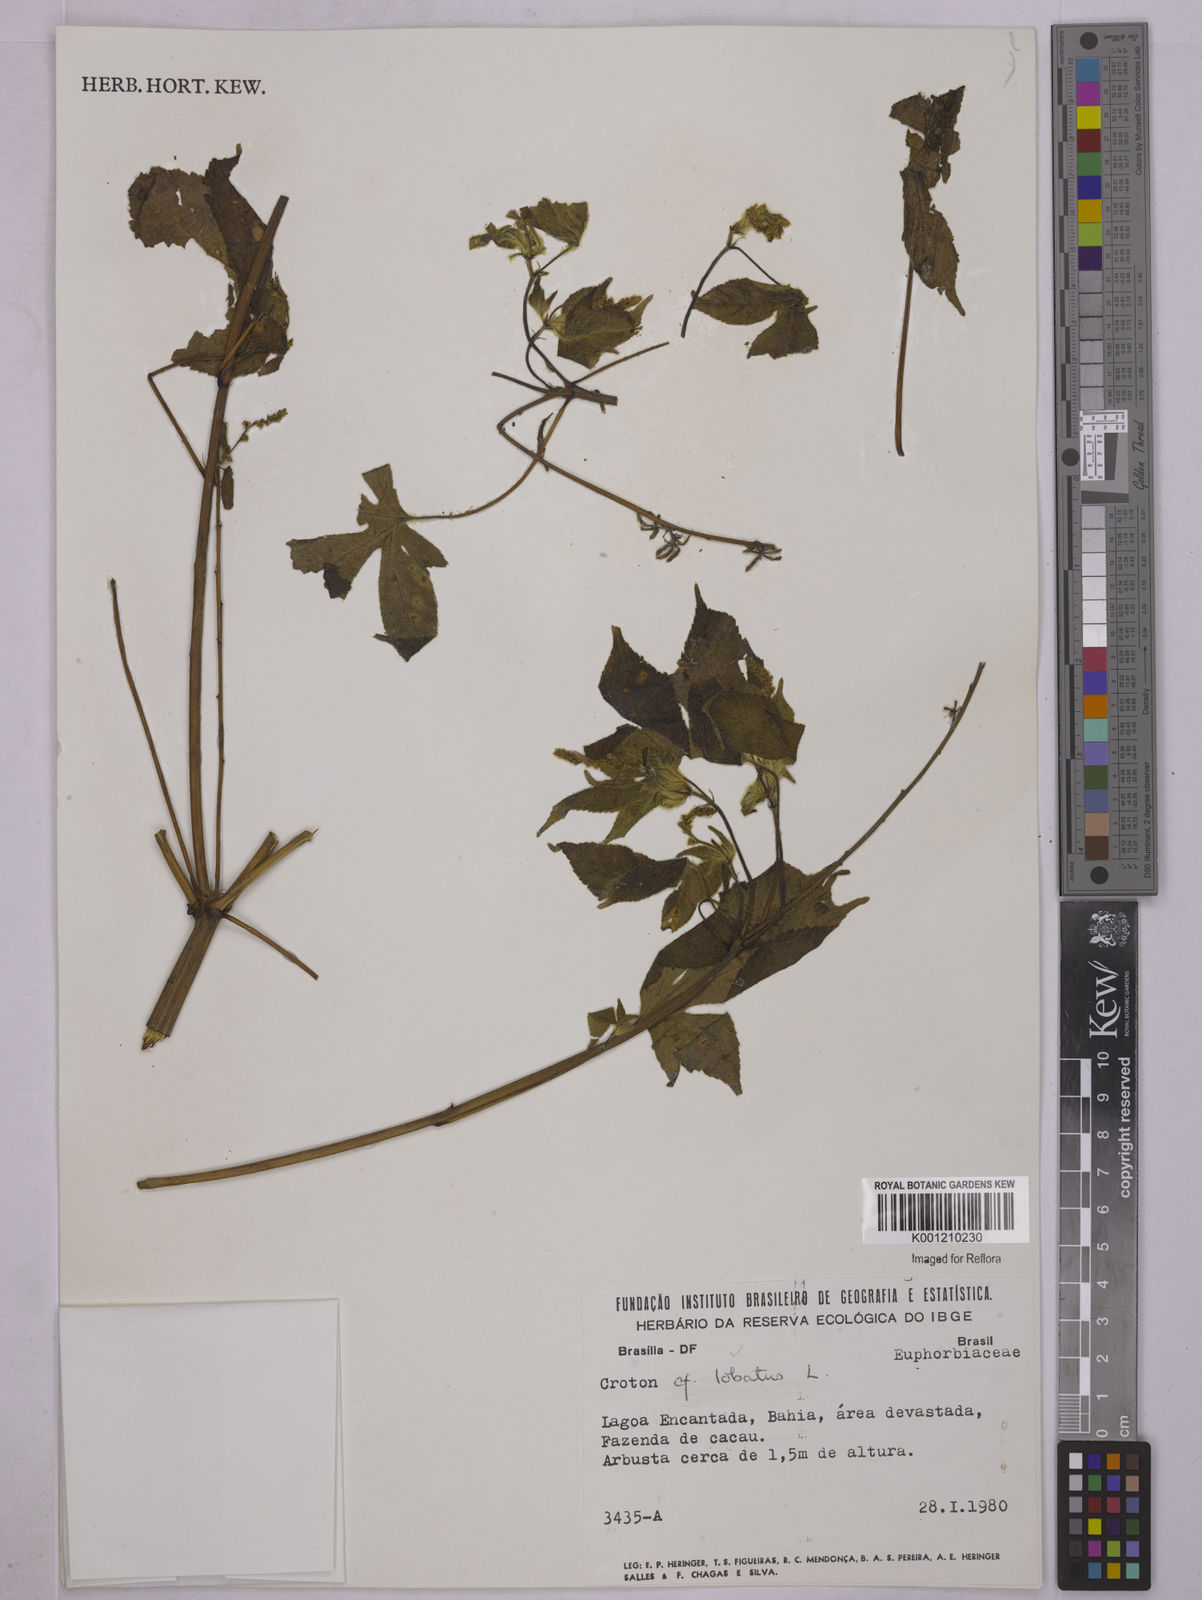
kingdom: Plantae
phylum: Tracheophyta
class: Magnoliopsida
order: Malpighiales
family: Euphorbiaceae
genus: Astraea
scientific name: Astraea lobata
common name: Lobed croton
